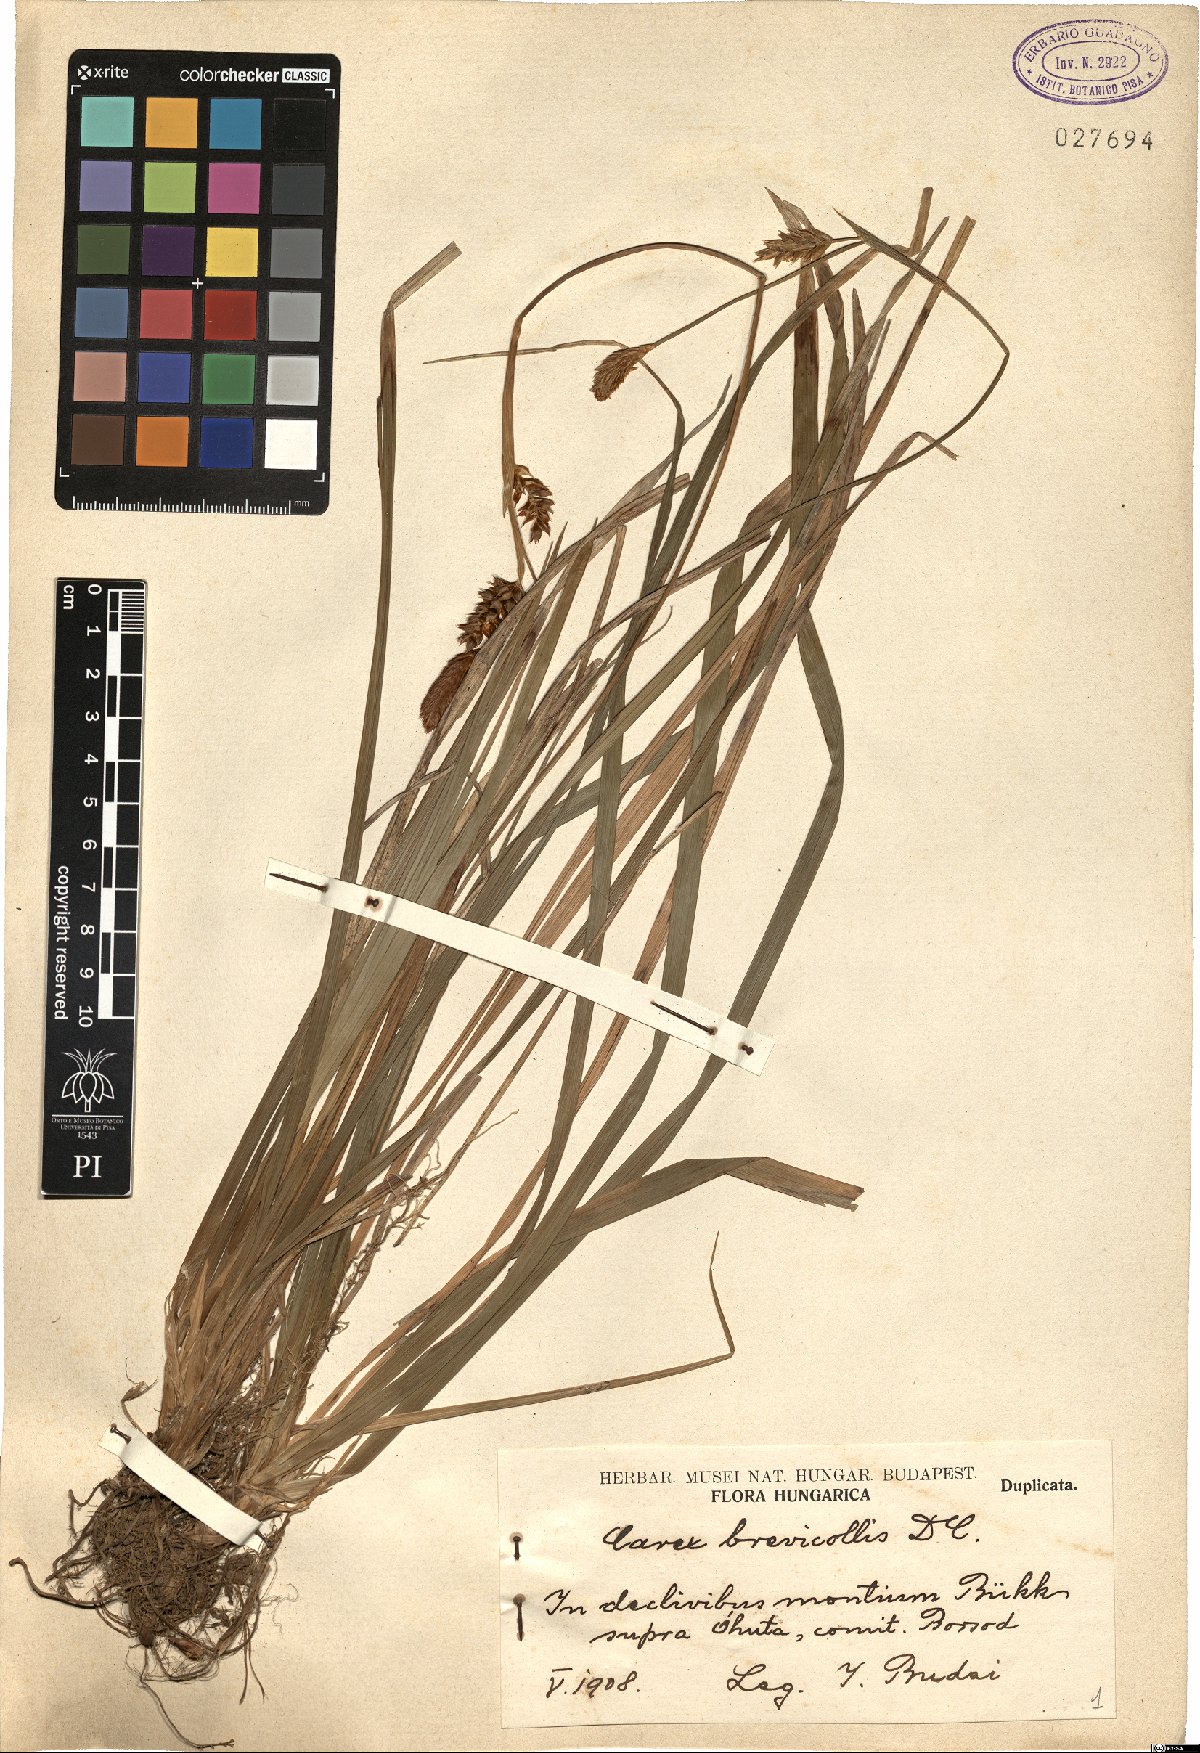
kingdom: Plantae
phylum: Tracheophyta
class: Liliopsida
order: Poales
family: Cyperaceae
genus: Carex
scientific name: Carex brevicollis
